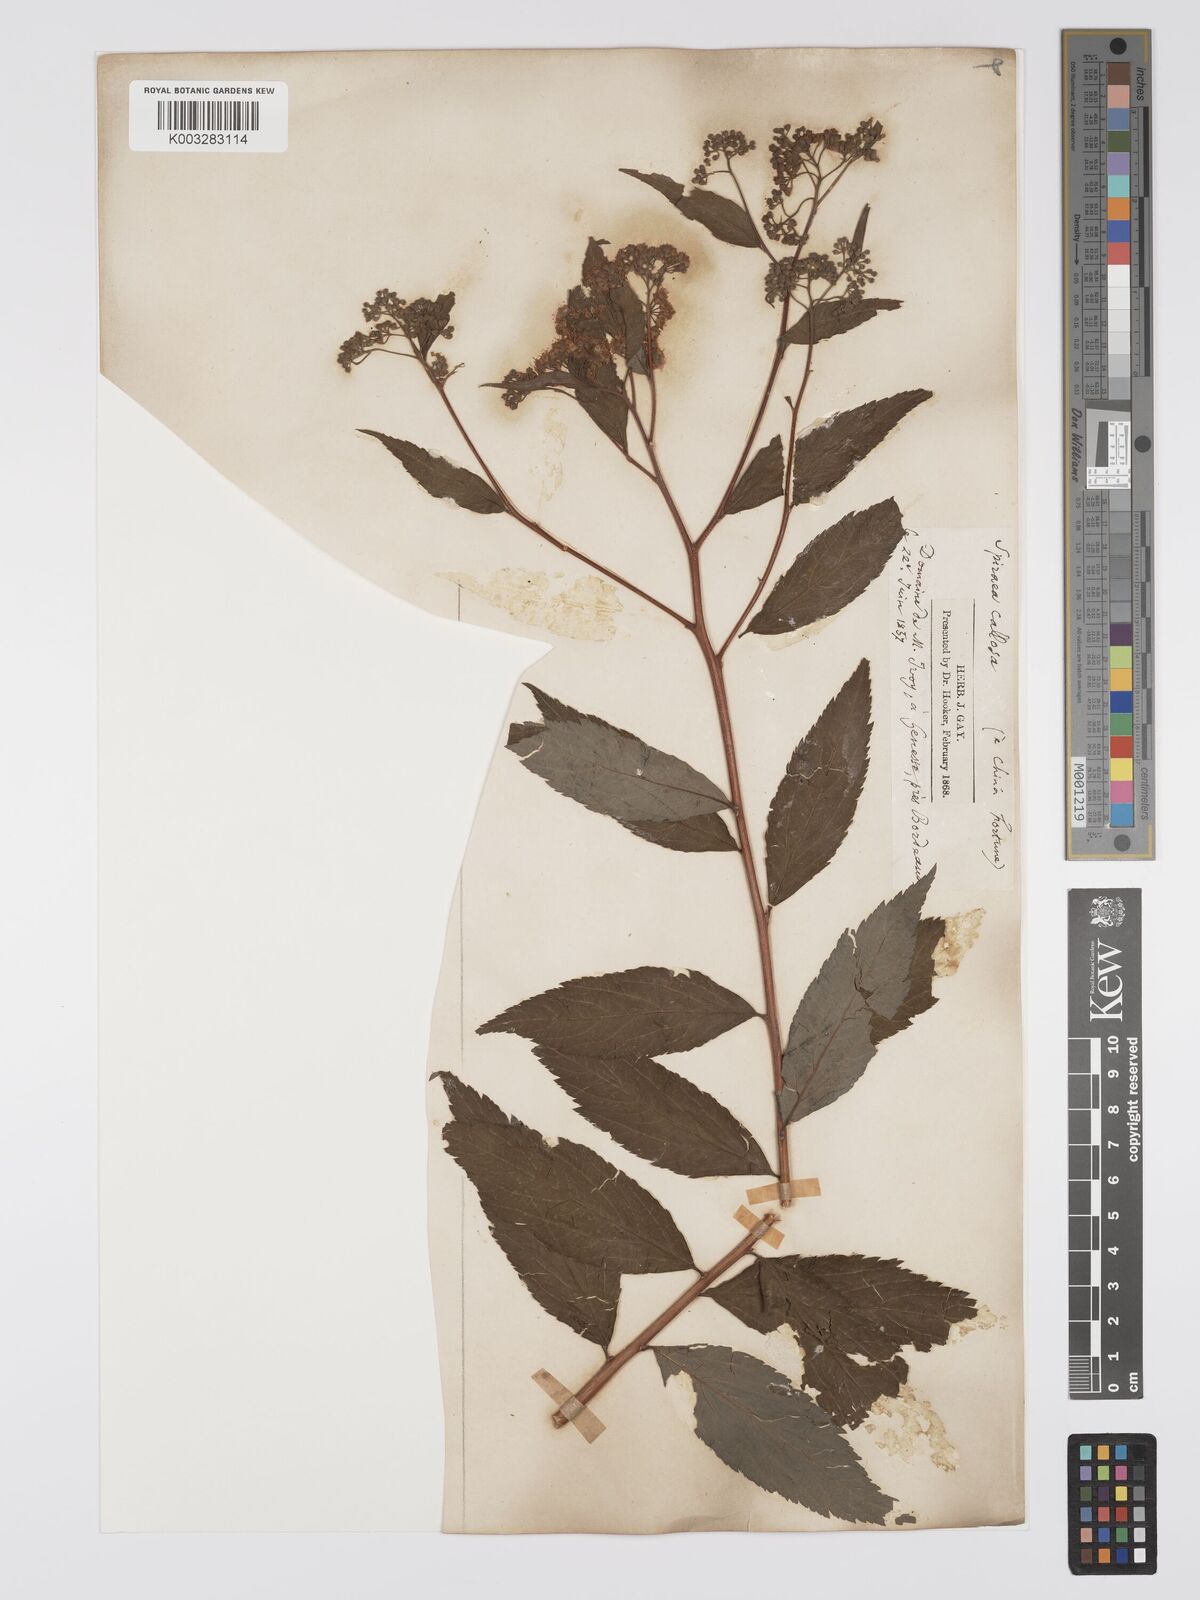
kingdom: Plantae
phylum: Tracheophyta
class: Magnoliopsida
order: Rosales
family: Rosaceae
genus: Spiraea
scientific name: Spiraea japonica
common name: Japanese spiraea
